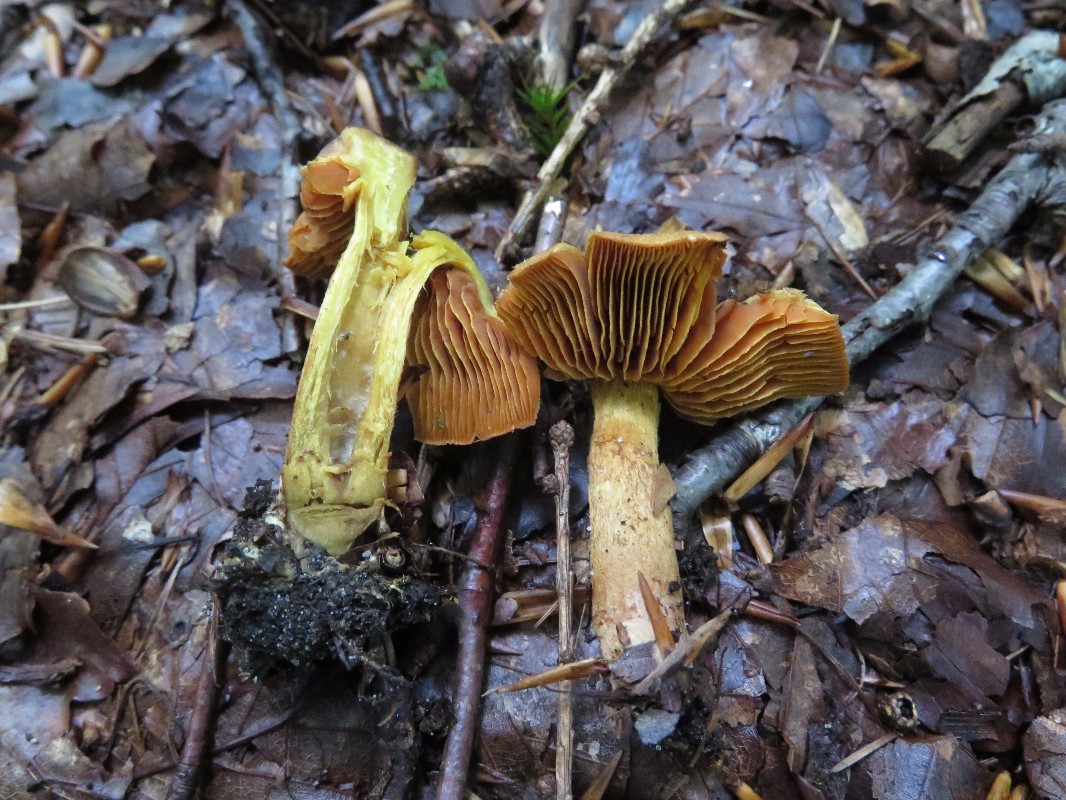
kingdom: Fungi
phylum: Basidiomycota
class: Agaricomycetes
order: Agaricales
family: Cortinariaceae
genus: Cortinarius
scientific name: Cortinarius malicorius
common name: grønkødet slørhat
